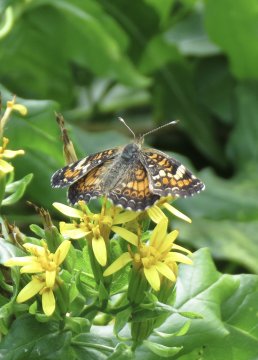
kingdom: Animalia
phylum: Arthropoda
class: Insecta
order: Lepidoptera
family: Nymphalidae
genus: Phyciodes
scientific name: Phyciodes phaon
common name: Phaon Crescent
